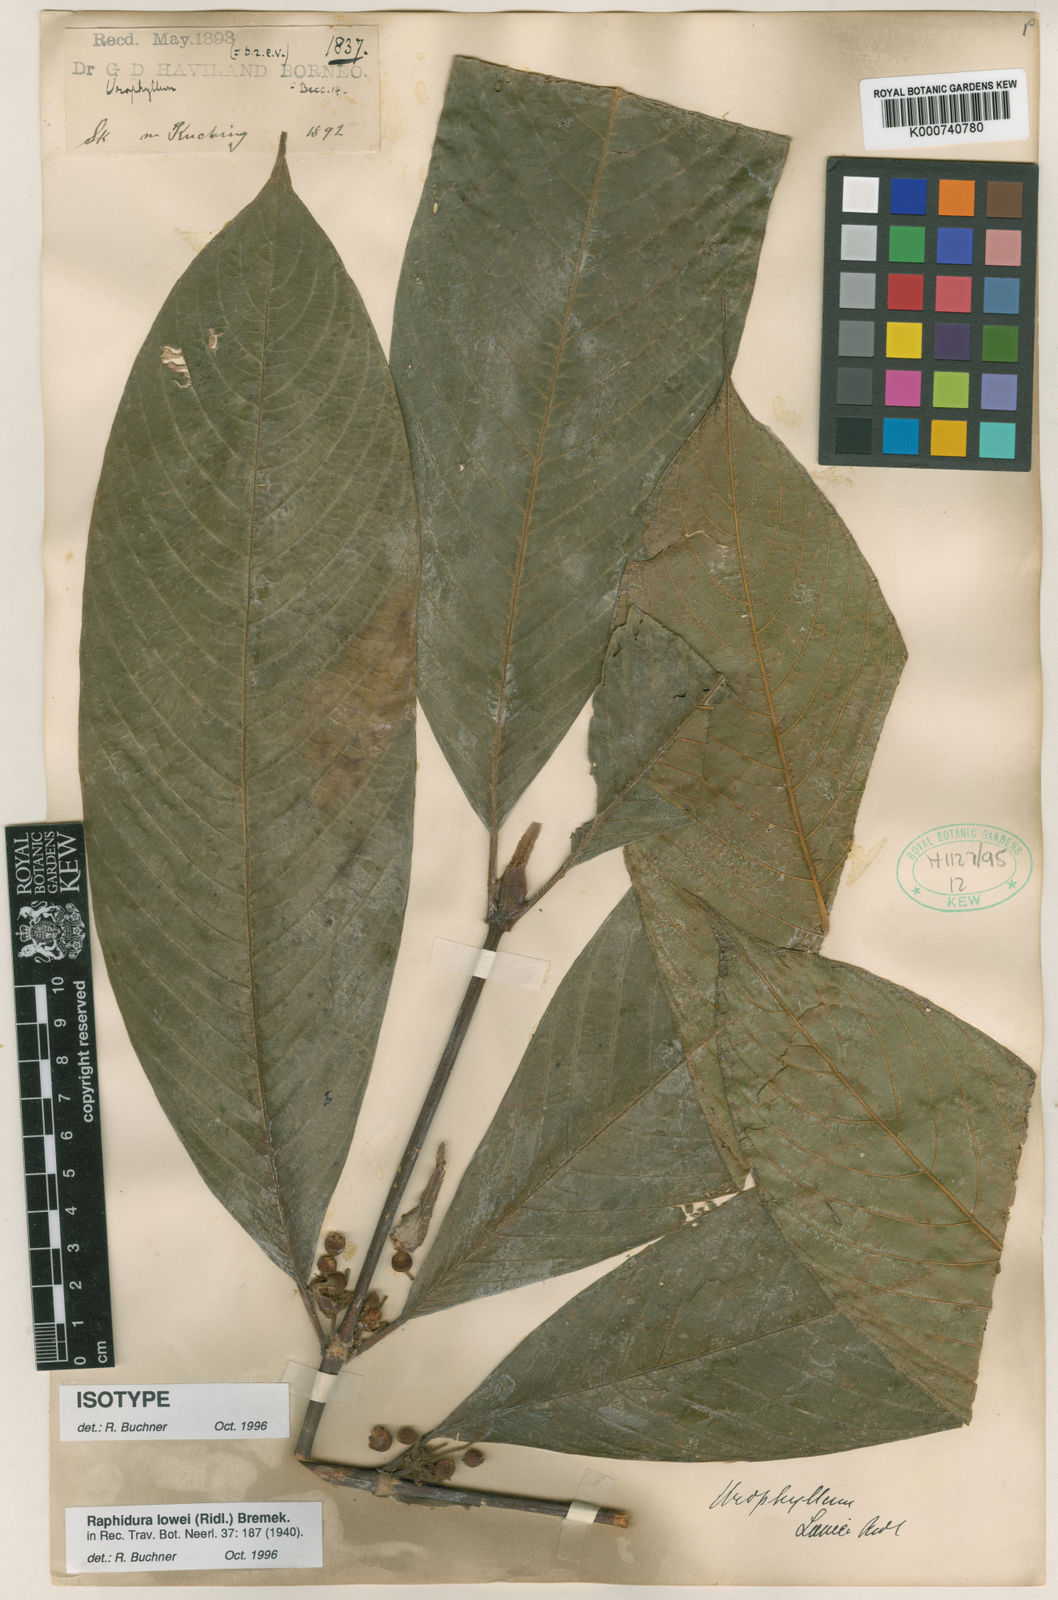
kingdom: Plantae
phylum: Tracheophyta
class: Magnoliopsida
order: Gentianales
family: Rubiaceae
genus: Rhaphidura
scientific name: Rhaphidura lowii
